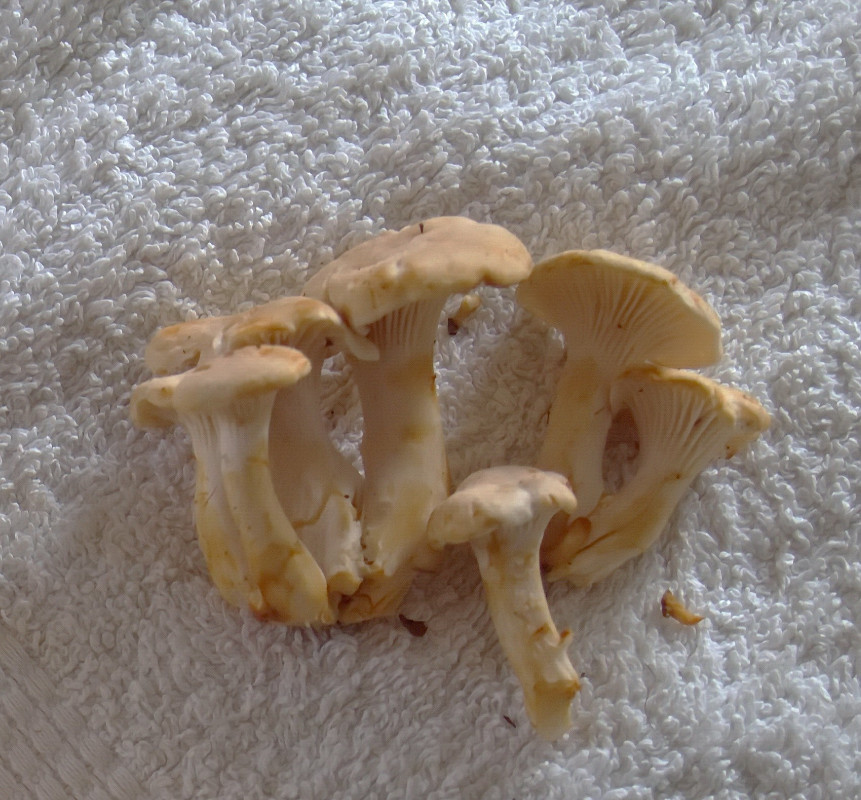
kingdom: Fungi
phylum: Basidiomycota
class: Agaricomycetes
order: Cantharellales
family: Hydnaceae
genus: Cantharellus
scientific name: Cantharellus
